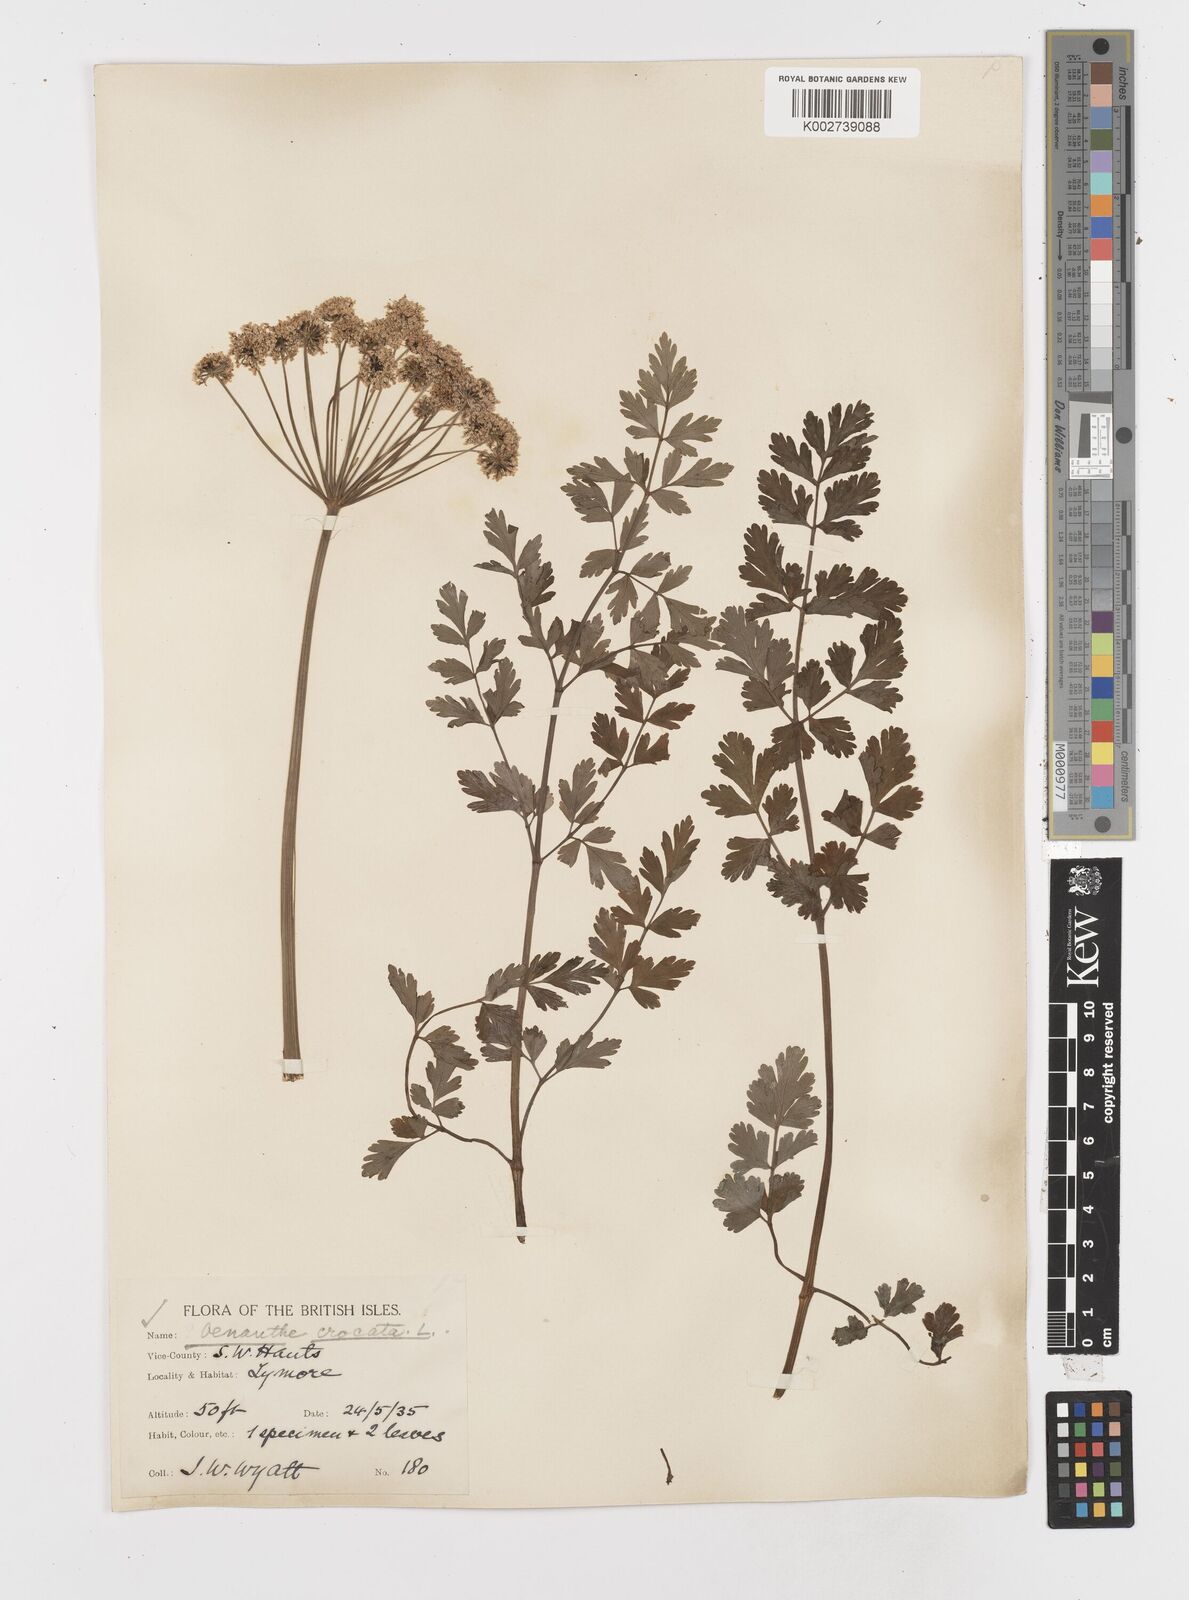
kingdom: Plantae
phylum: Tracheophyta
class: Magnoliopsida
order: Apiales
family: Apiaceae
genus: Oenanthe
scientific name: Oenanthe crocata
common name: Hemlock water-dropwort
